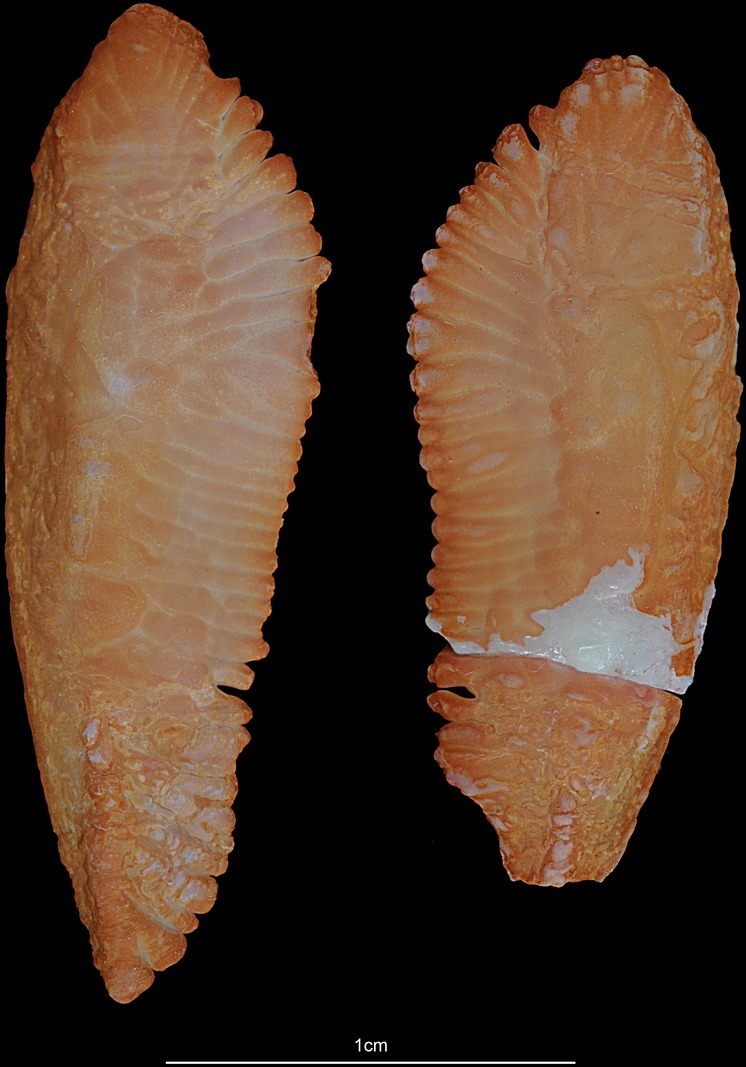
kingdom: Animalia
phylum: Chordata
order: Gadiformes
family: Merlucciidae
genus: Merluccius
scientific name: Merluccius merluccius
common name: European hake
